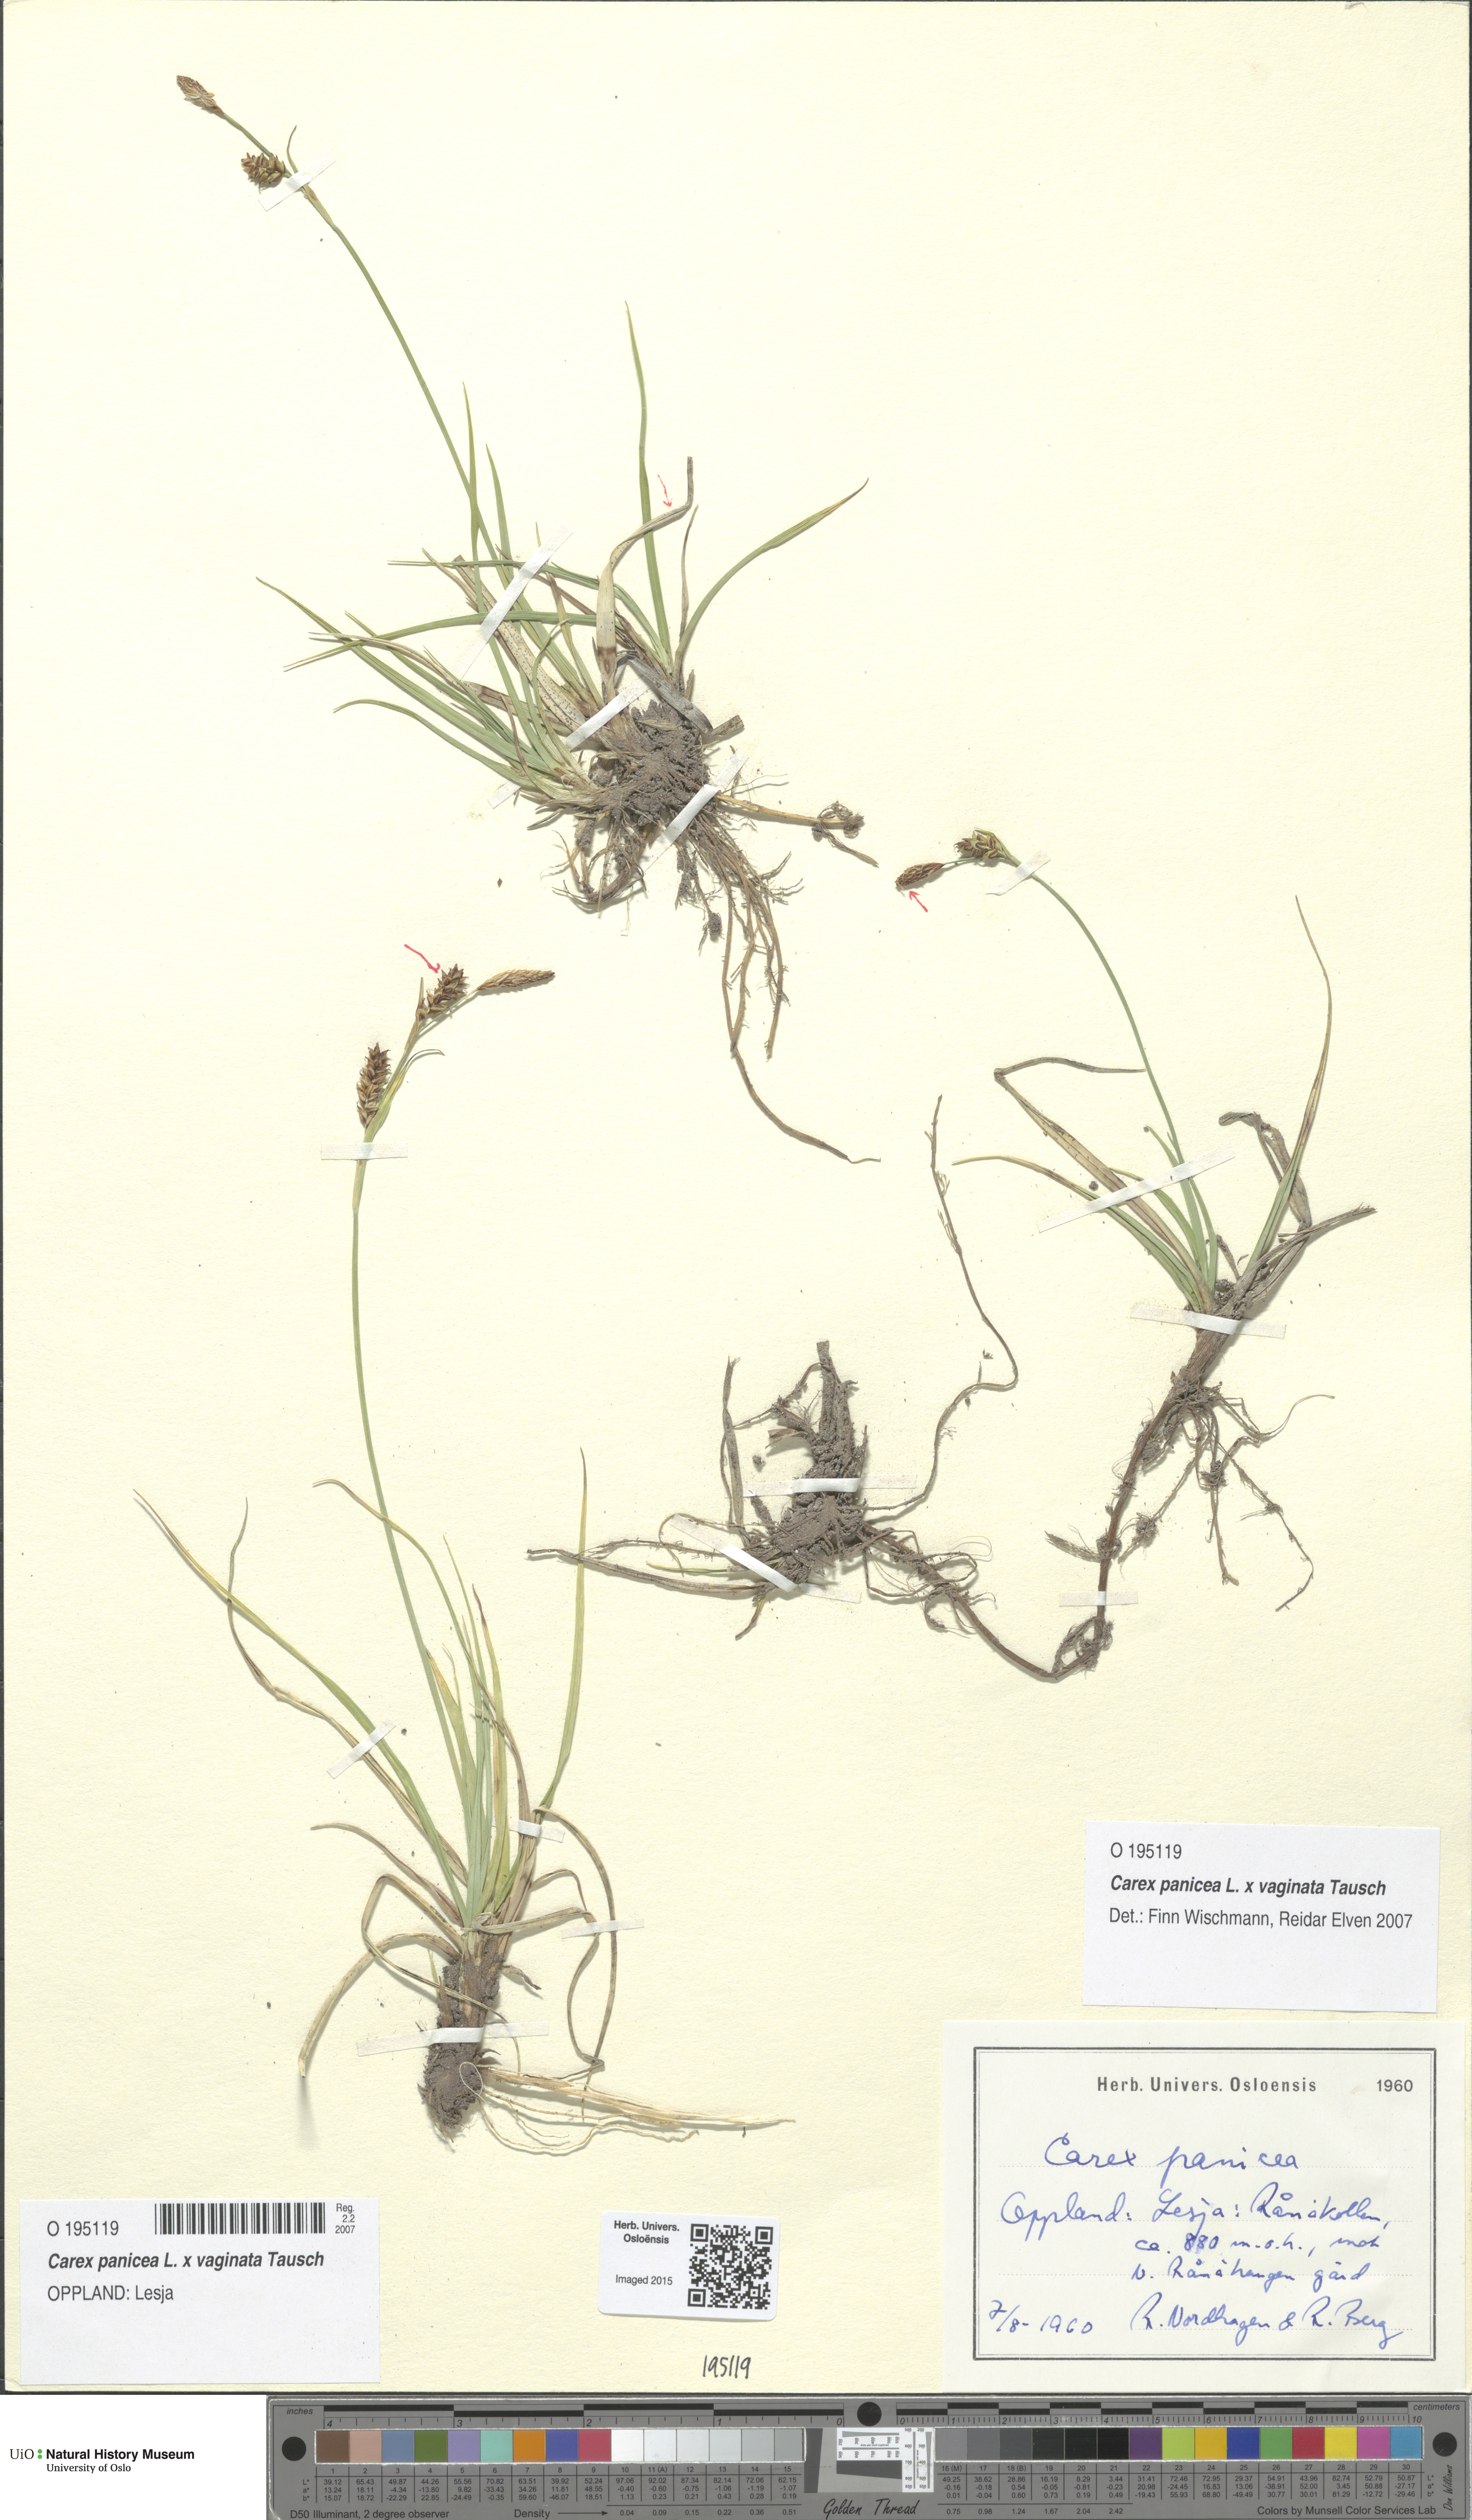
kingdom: Plantae
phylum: Tracheophyta
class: Liliopsida
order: Poales
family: Cyperaceae
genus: Carex
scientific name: Carex
